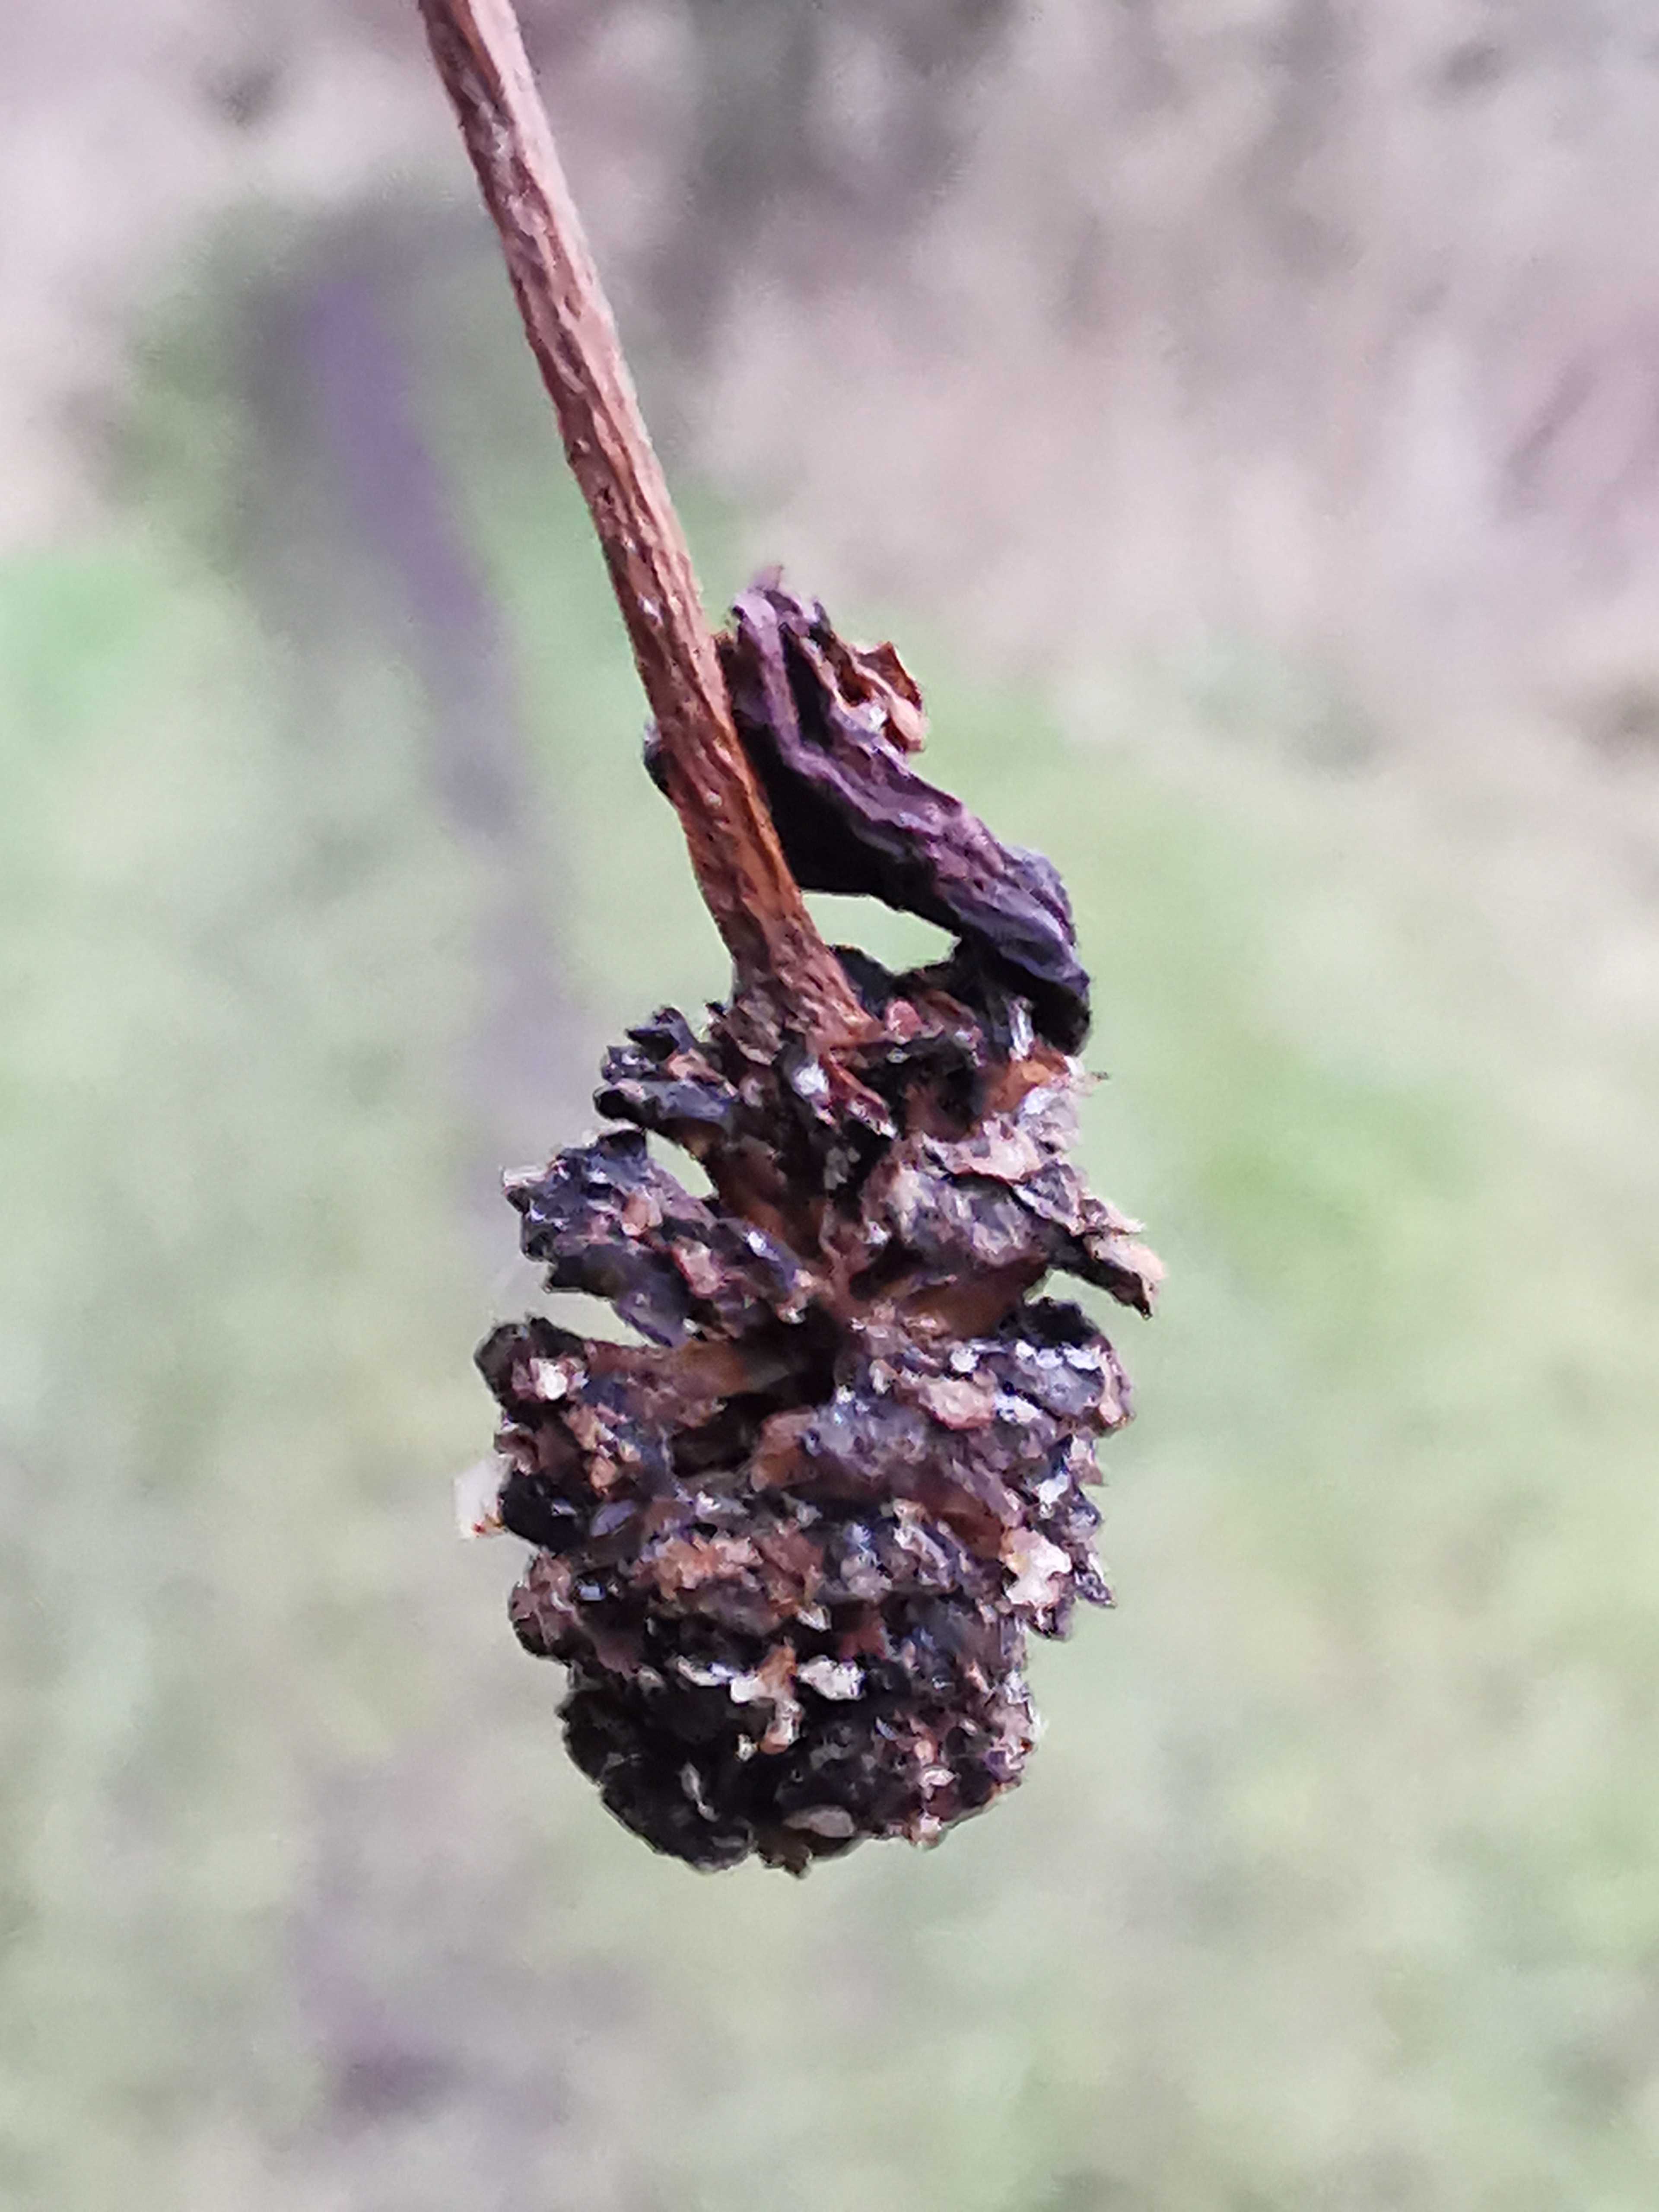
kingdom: Fungi
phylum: Ascomycota
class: Taphrinomycetes
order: Taphrinales
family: Taphrinaceae
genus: Taphrina
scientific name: Taphrina alni
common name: Alder tongue
